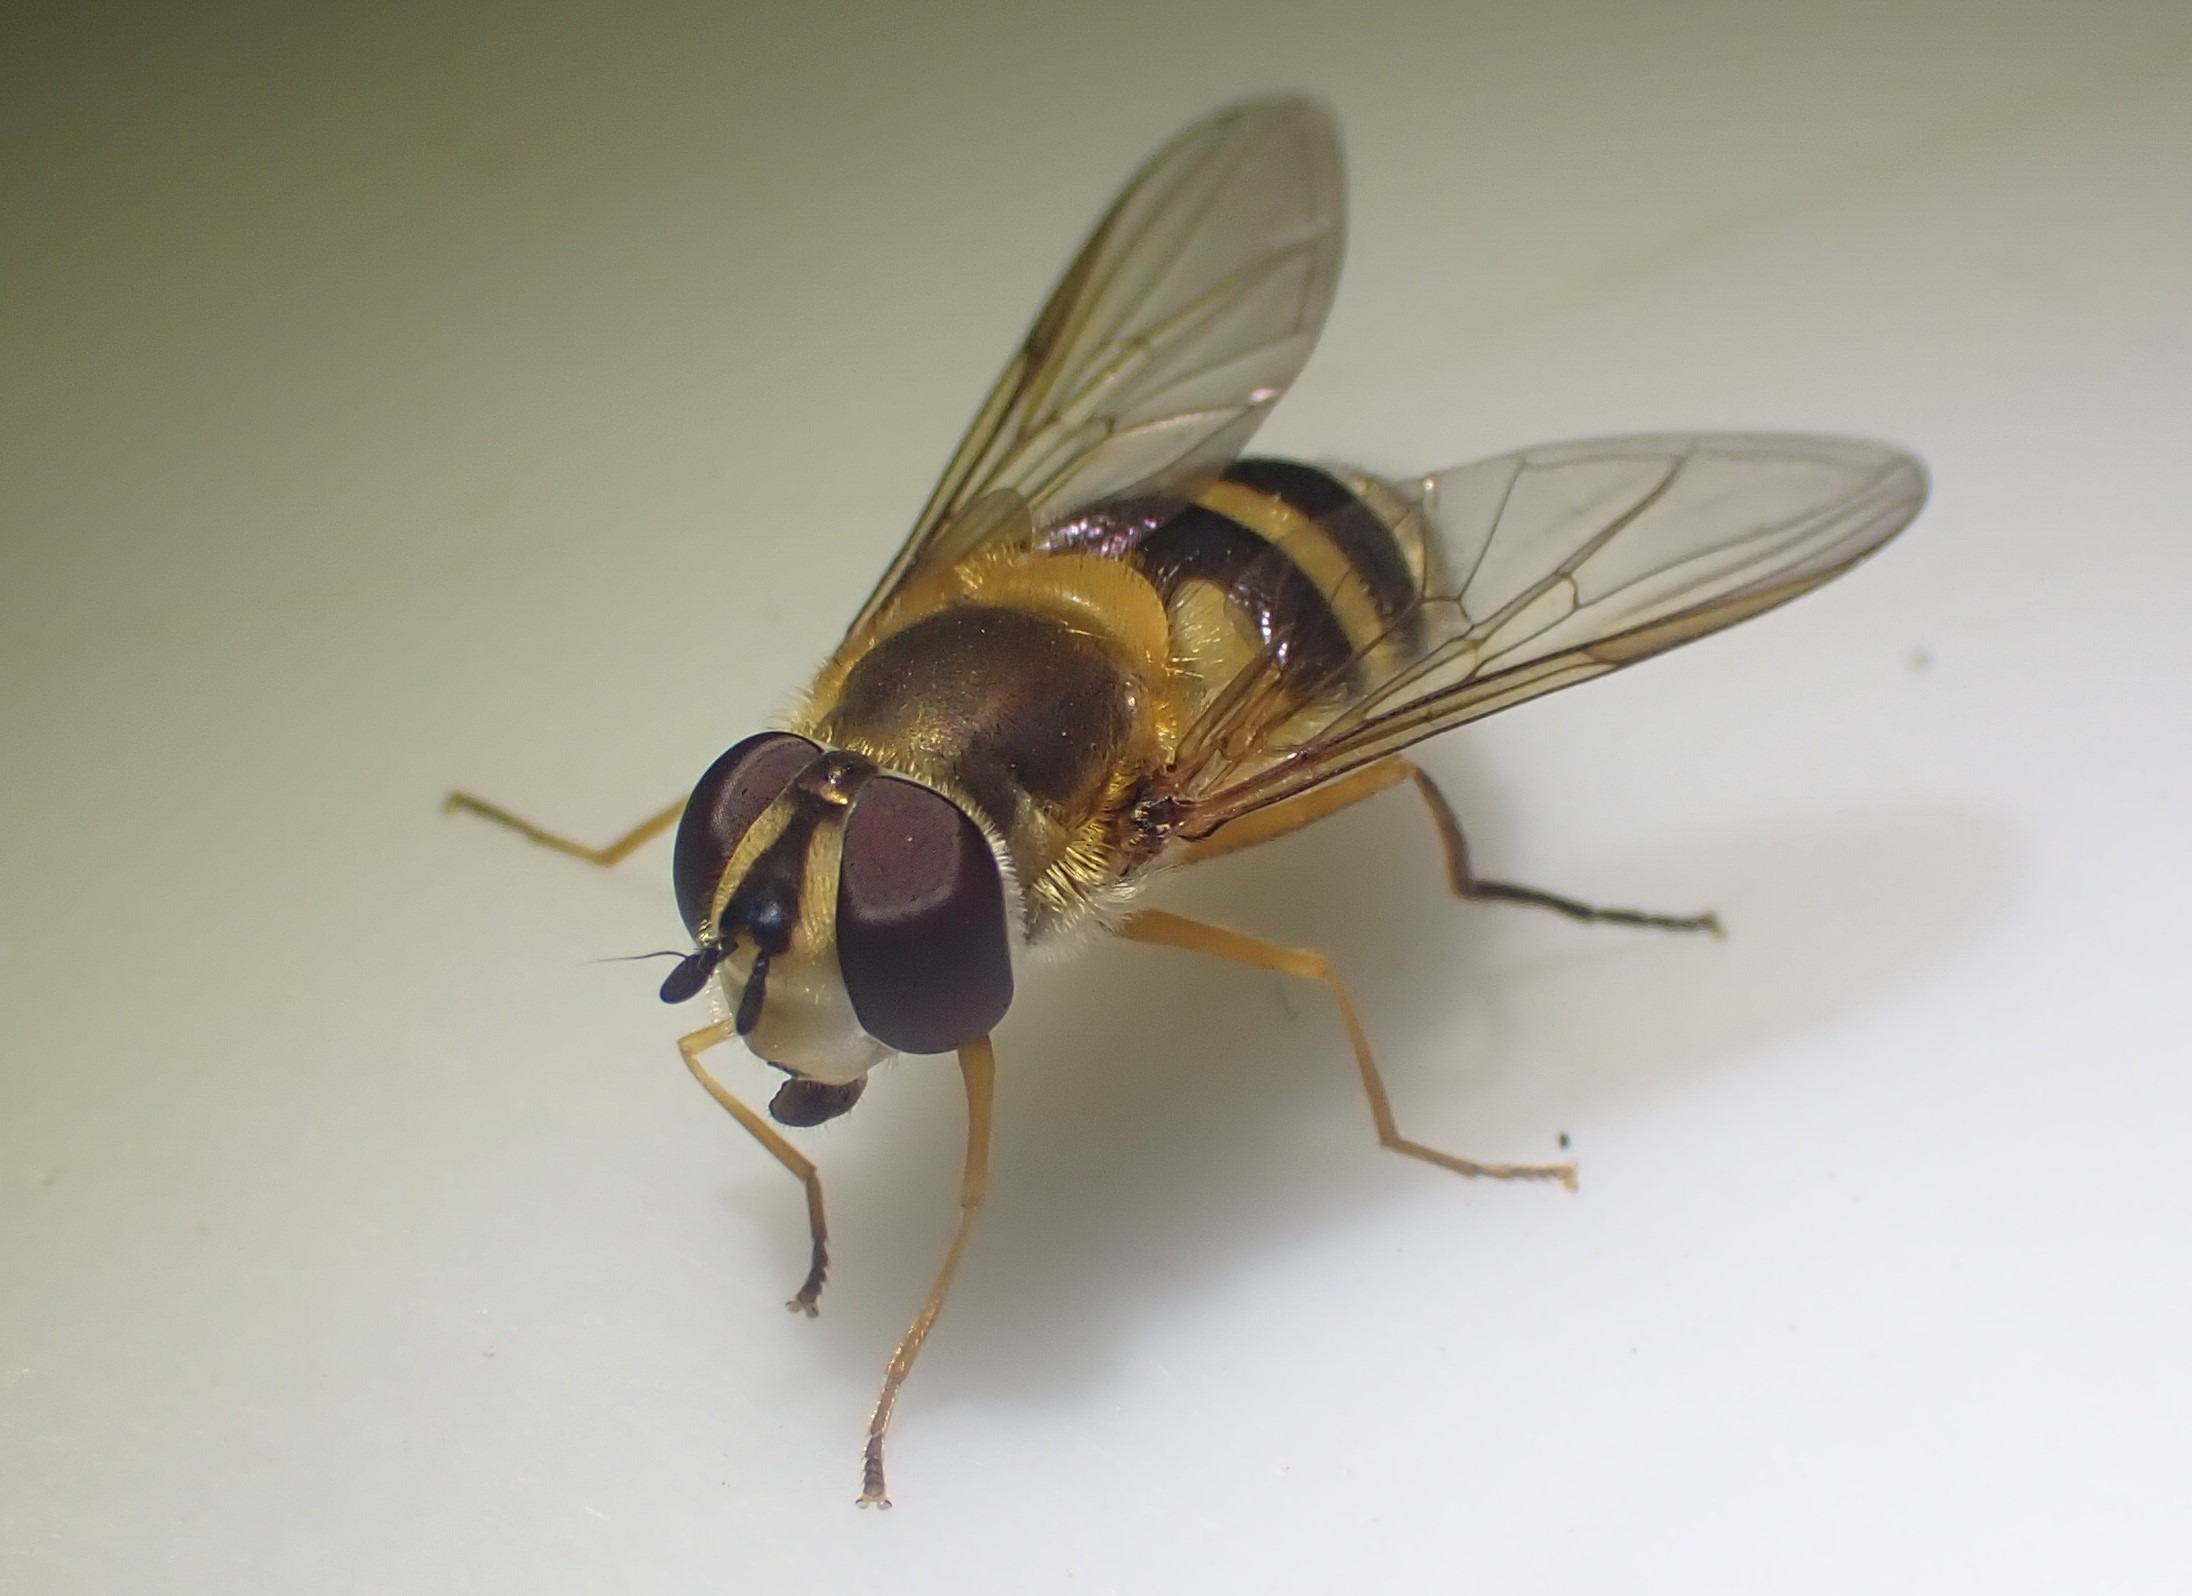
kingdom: Animalia
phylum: Arthropoda
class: Insecta
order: Diptera
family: Syrphidae
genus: Epistrophe
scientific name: Epistrophe grossulariae
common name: Stikkelsbær-glanssvirreflue
